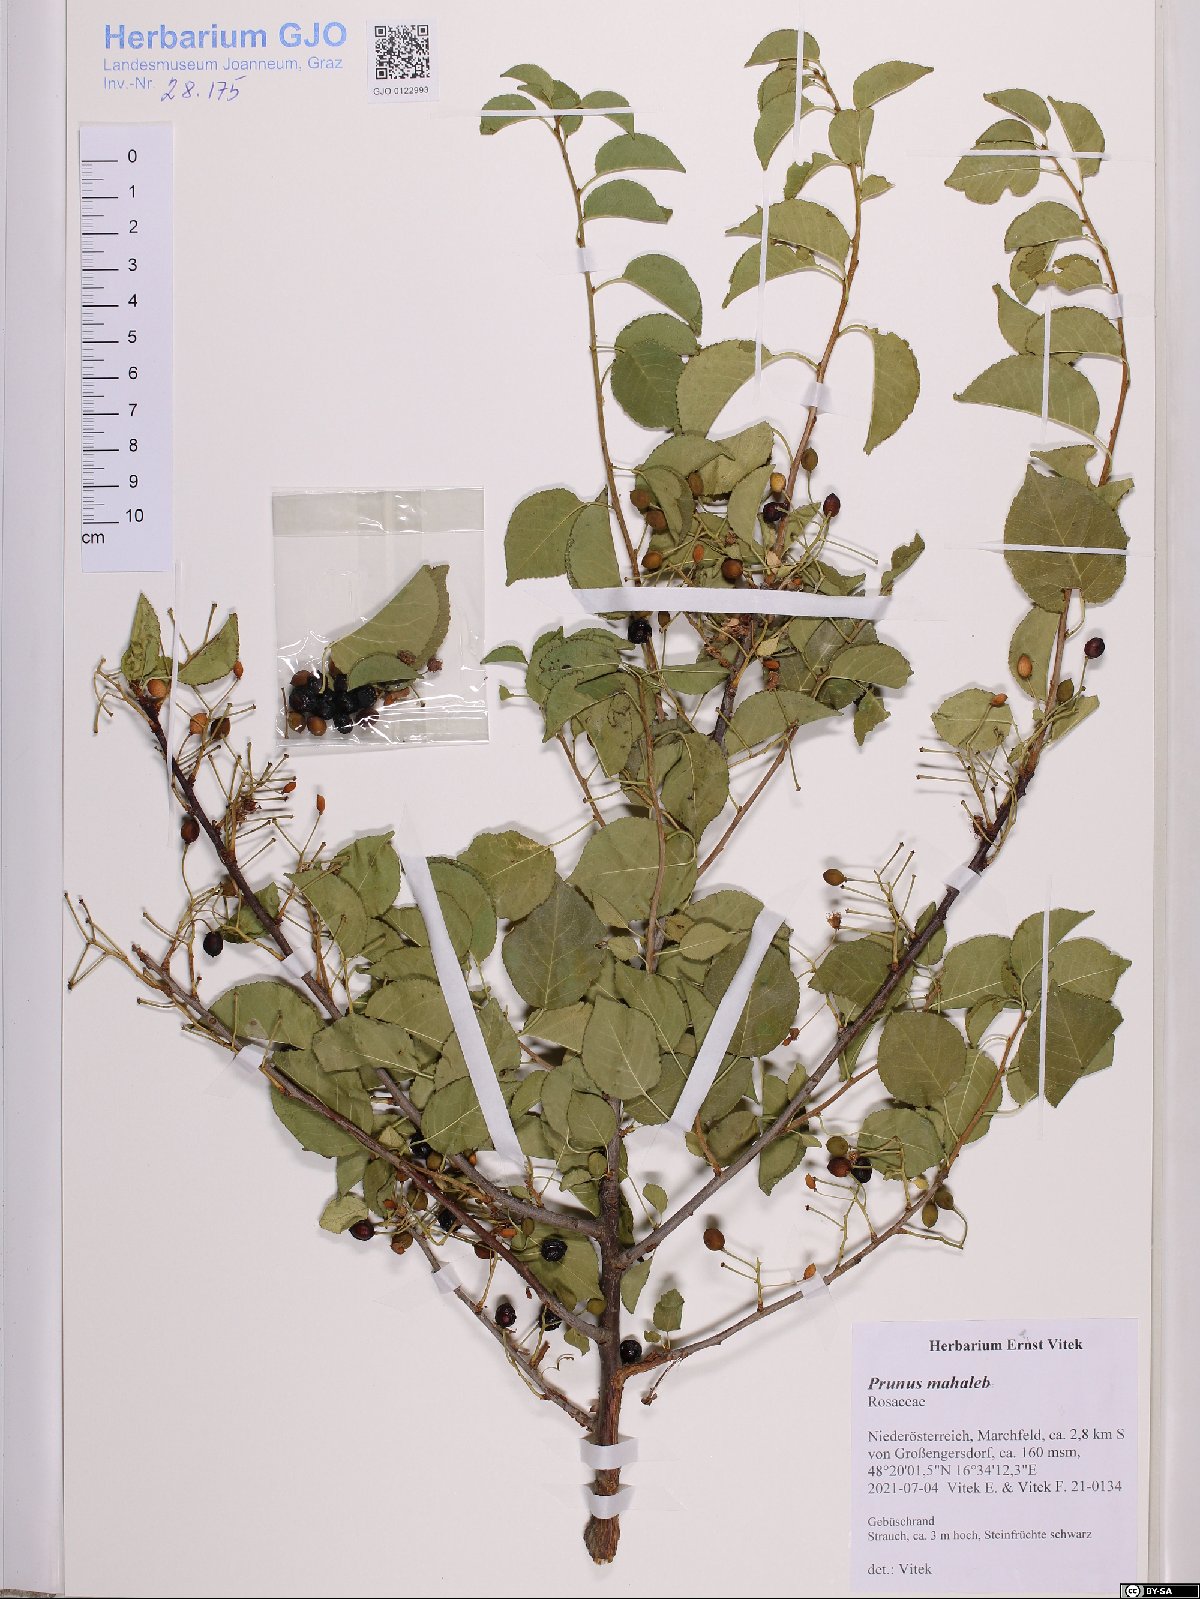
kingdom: Plantae
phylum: Tracheophyta
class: Magnoliopsida
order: Rosales
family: Rosaceae
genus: Prunus
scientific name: Prunus mahaleb
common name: Mahaleb cherry
